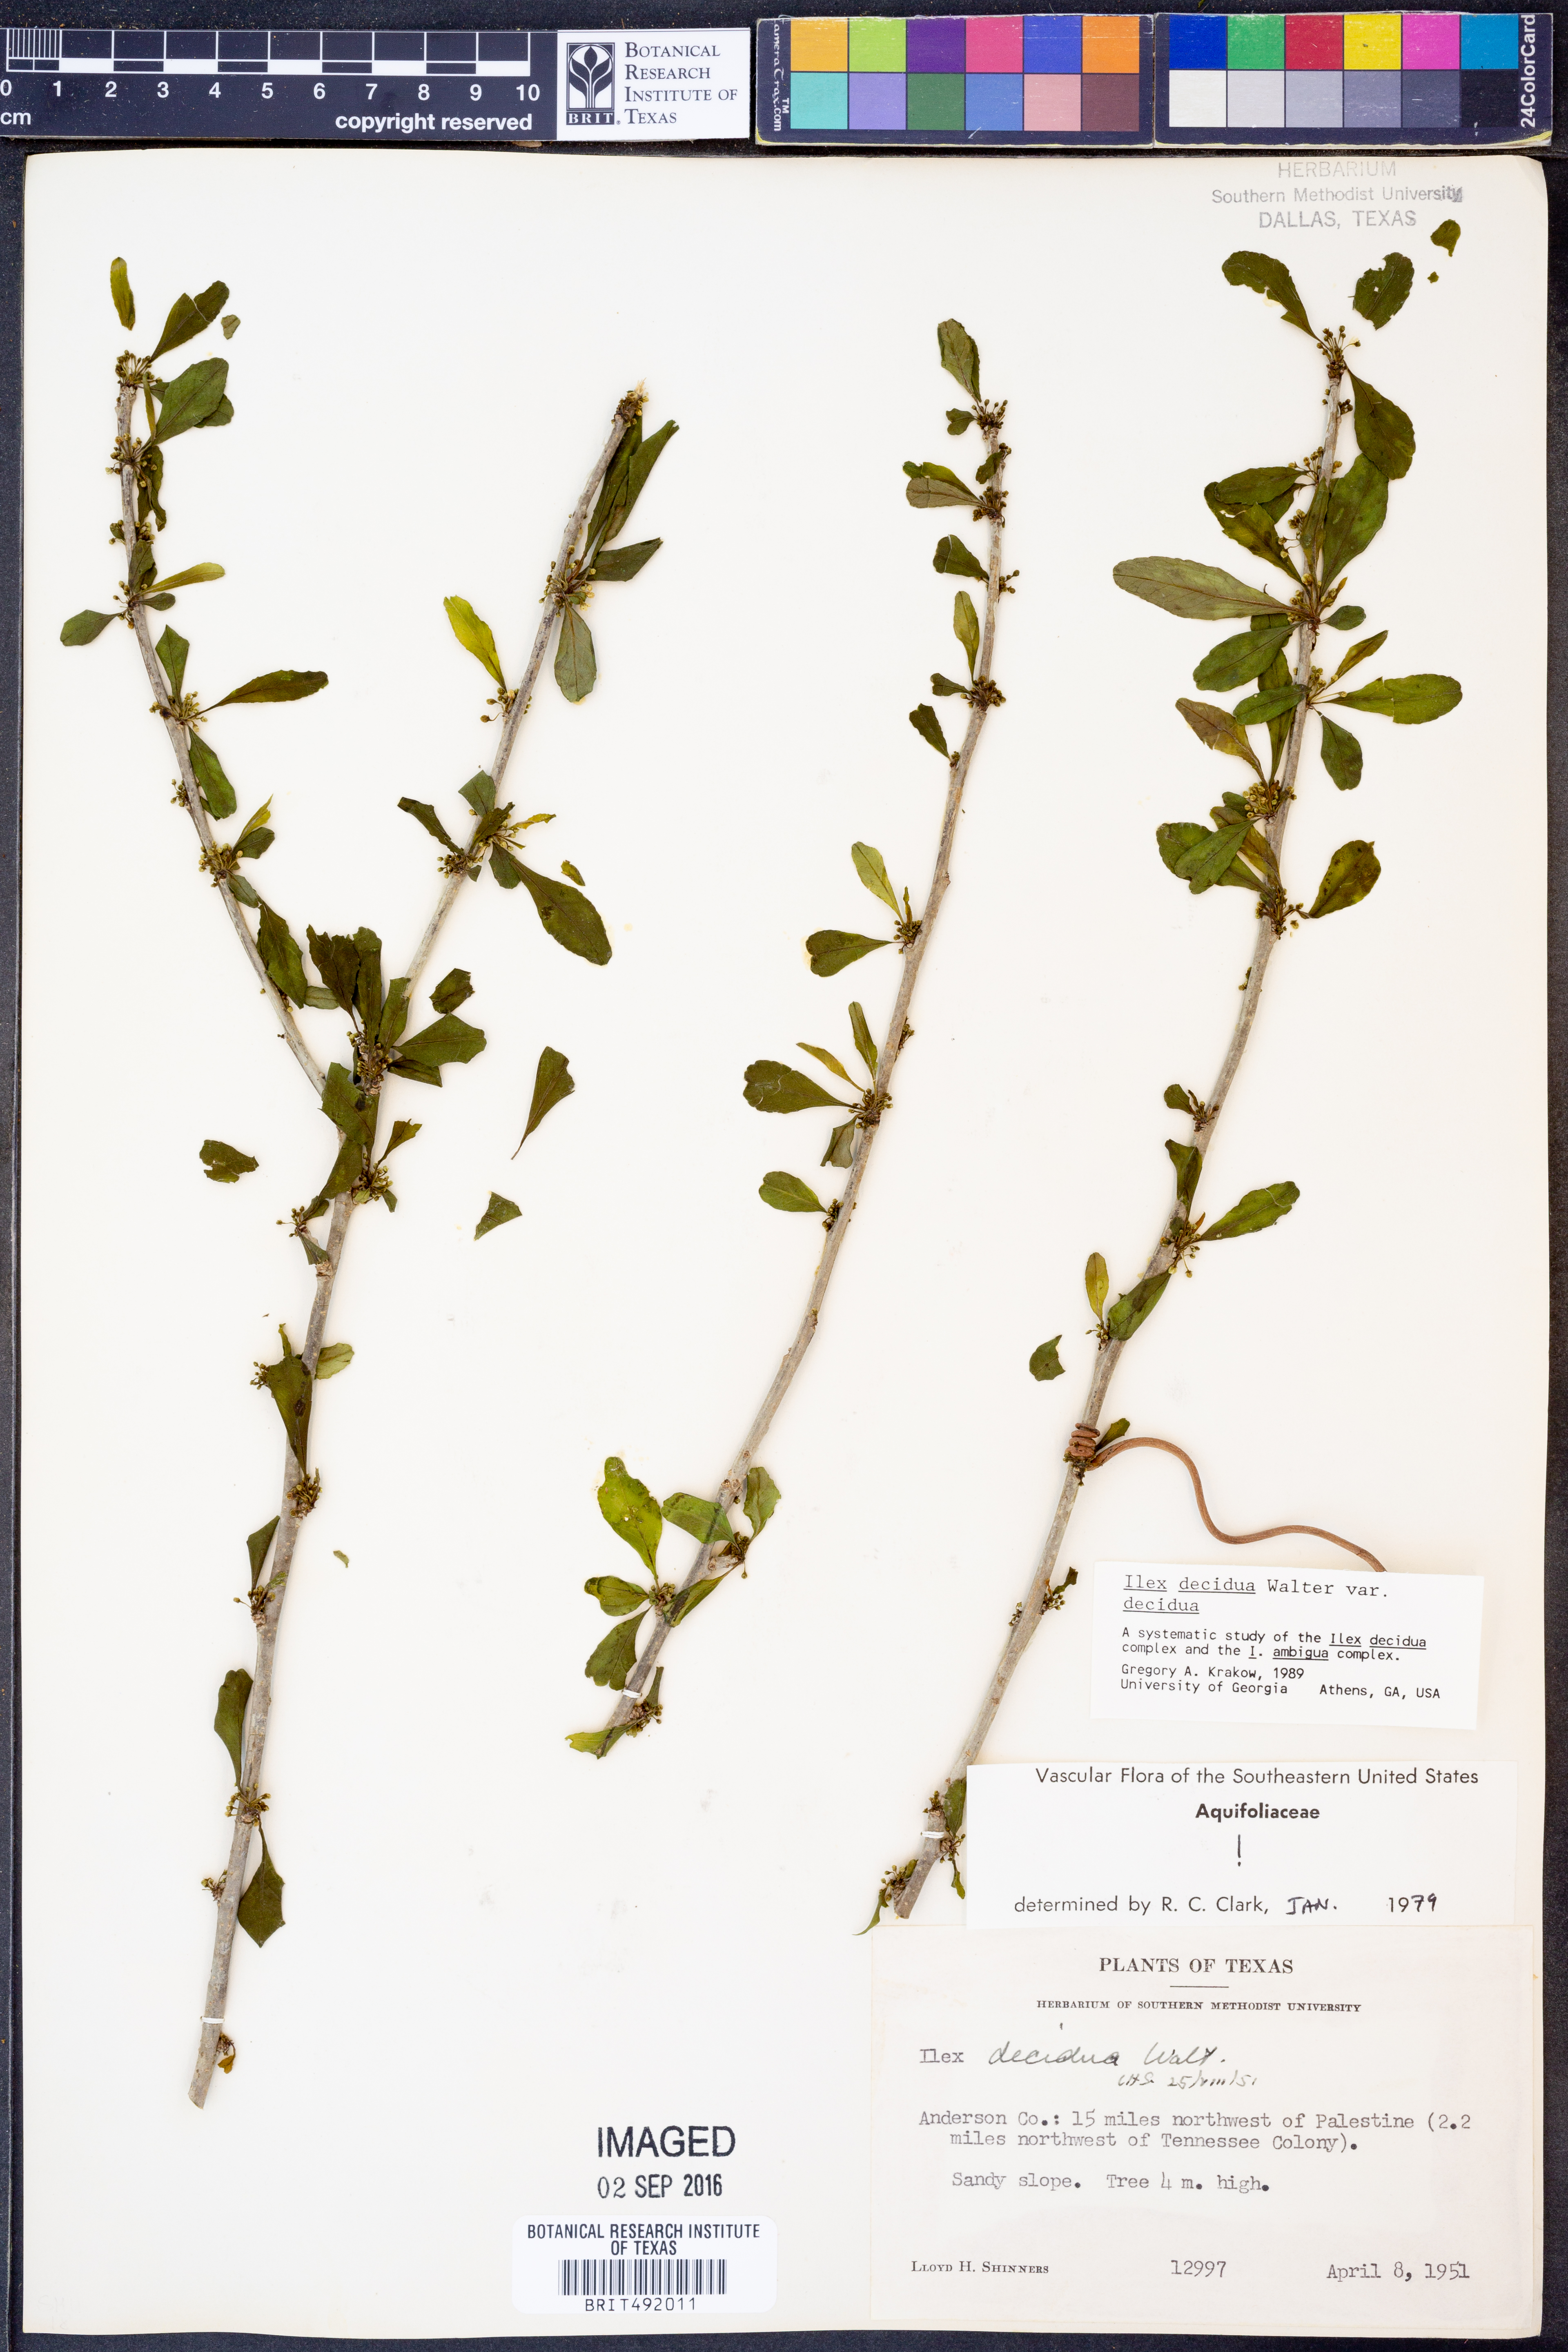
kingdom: Plantae
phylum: Tracheophyta
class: Magnoliopsida
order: Aquifoliales
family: Aquifoliaceae
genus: Ilex
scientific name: Ilex decidua
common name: Possum-haw
